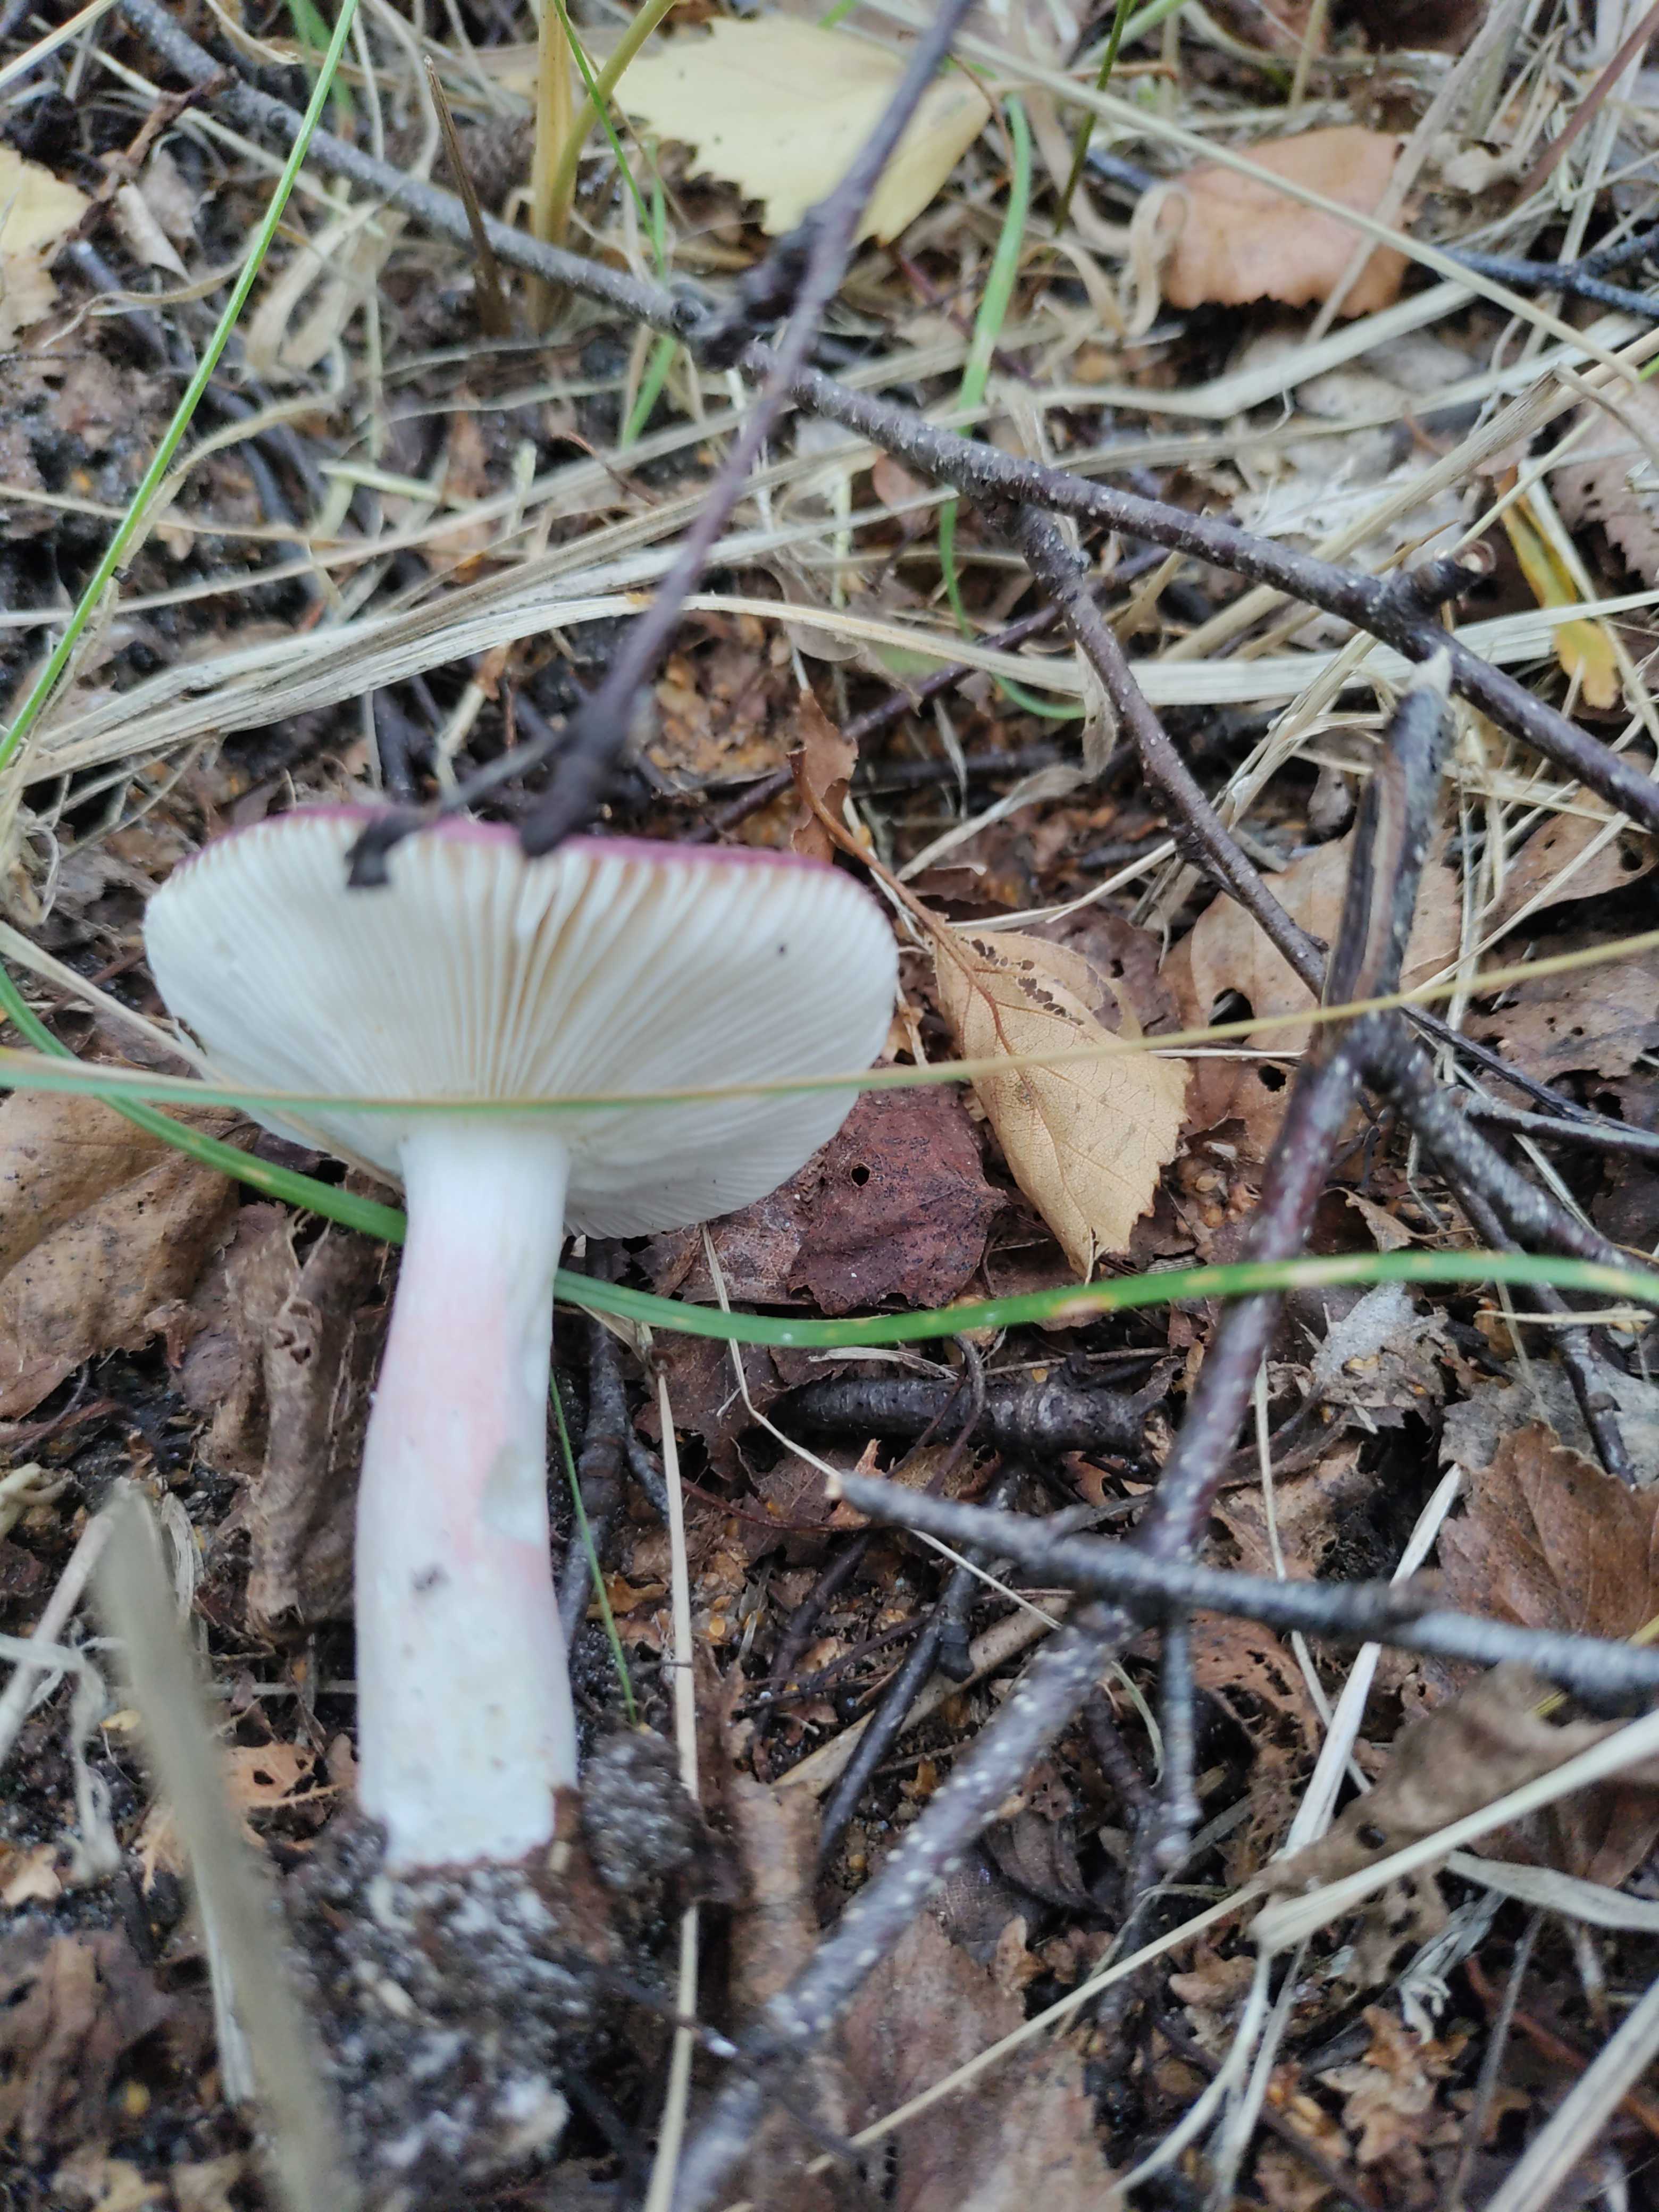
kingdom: Fungi
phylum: Basidiomycota
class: Agaricomycetes
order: Russulales
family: Russulaceae
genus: Russula
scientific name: Russula gracillima
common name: slank skørhat
